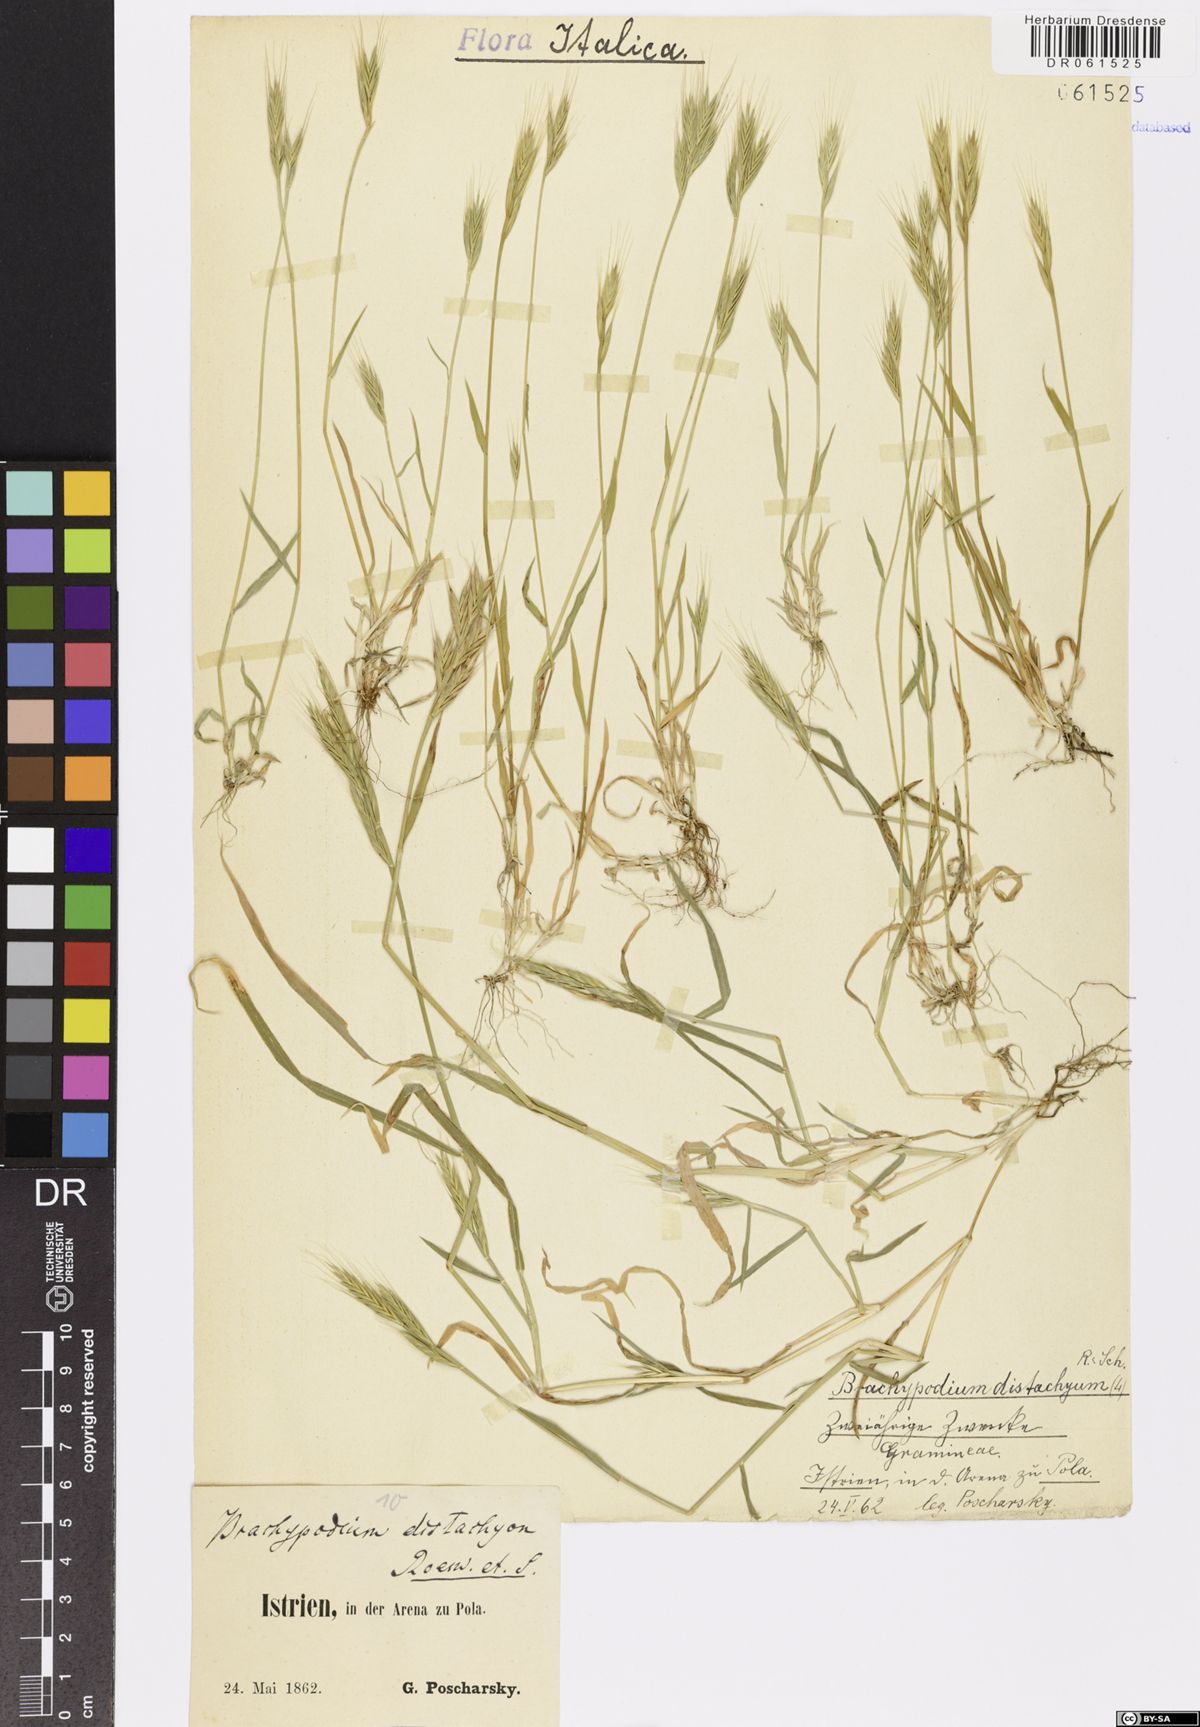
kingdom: Plantae
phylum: Tracheophyta
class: Liliopsida
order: Poales
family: Poaceae
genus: Brachypodium
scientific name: Brachypodium distachyon
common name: Stiff brome
